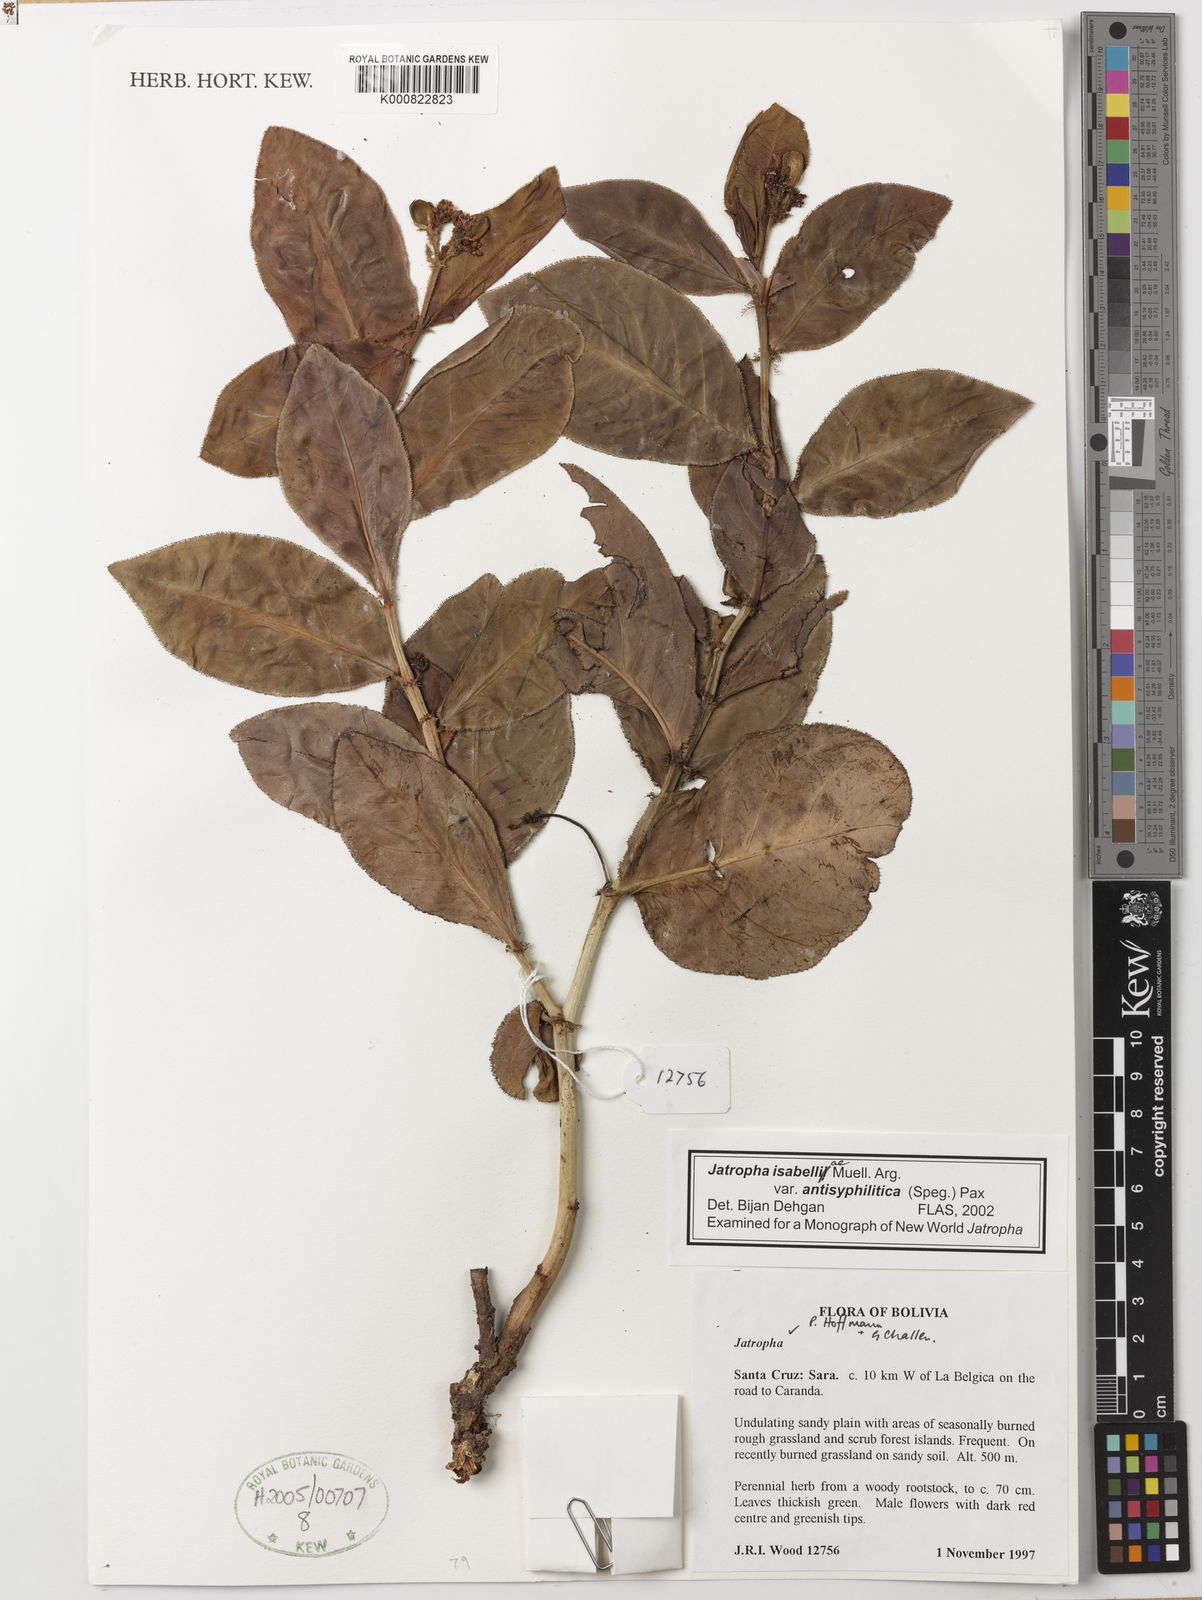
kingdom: Plantae
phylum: Tracheophyta
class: Magnoliopsida
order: Malpighiales
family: Euphorbiaceae
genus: Jatropha
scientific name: Jatropha
